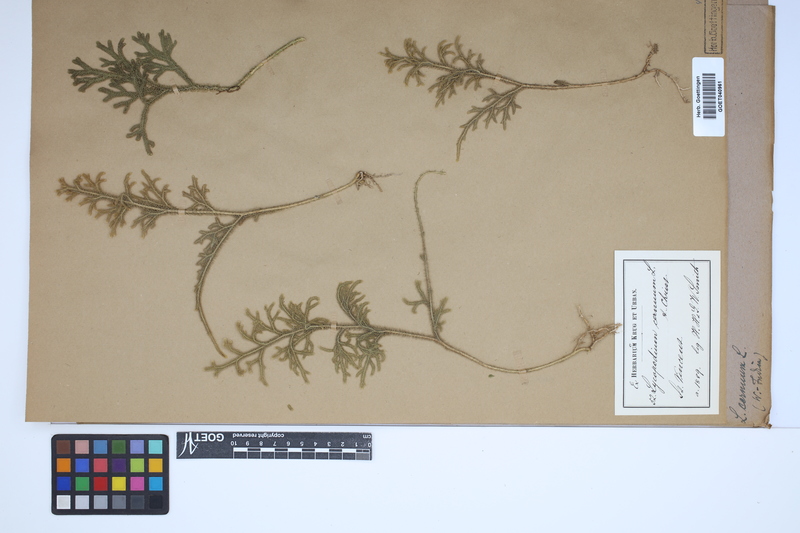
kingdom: Plantae
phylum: Tracheophyta
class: Lycopodiopsida
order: Lycopodiales
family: Lycopodiaceae
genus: Palhinhaea
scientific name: Palhinhaea cernua
